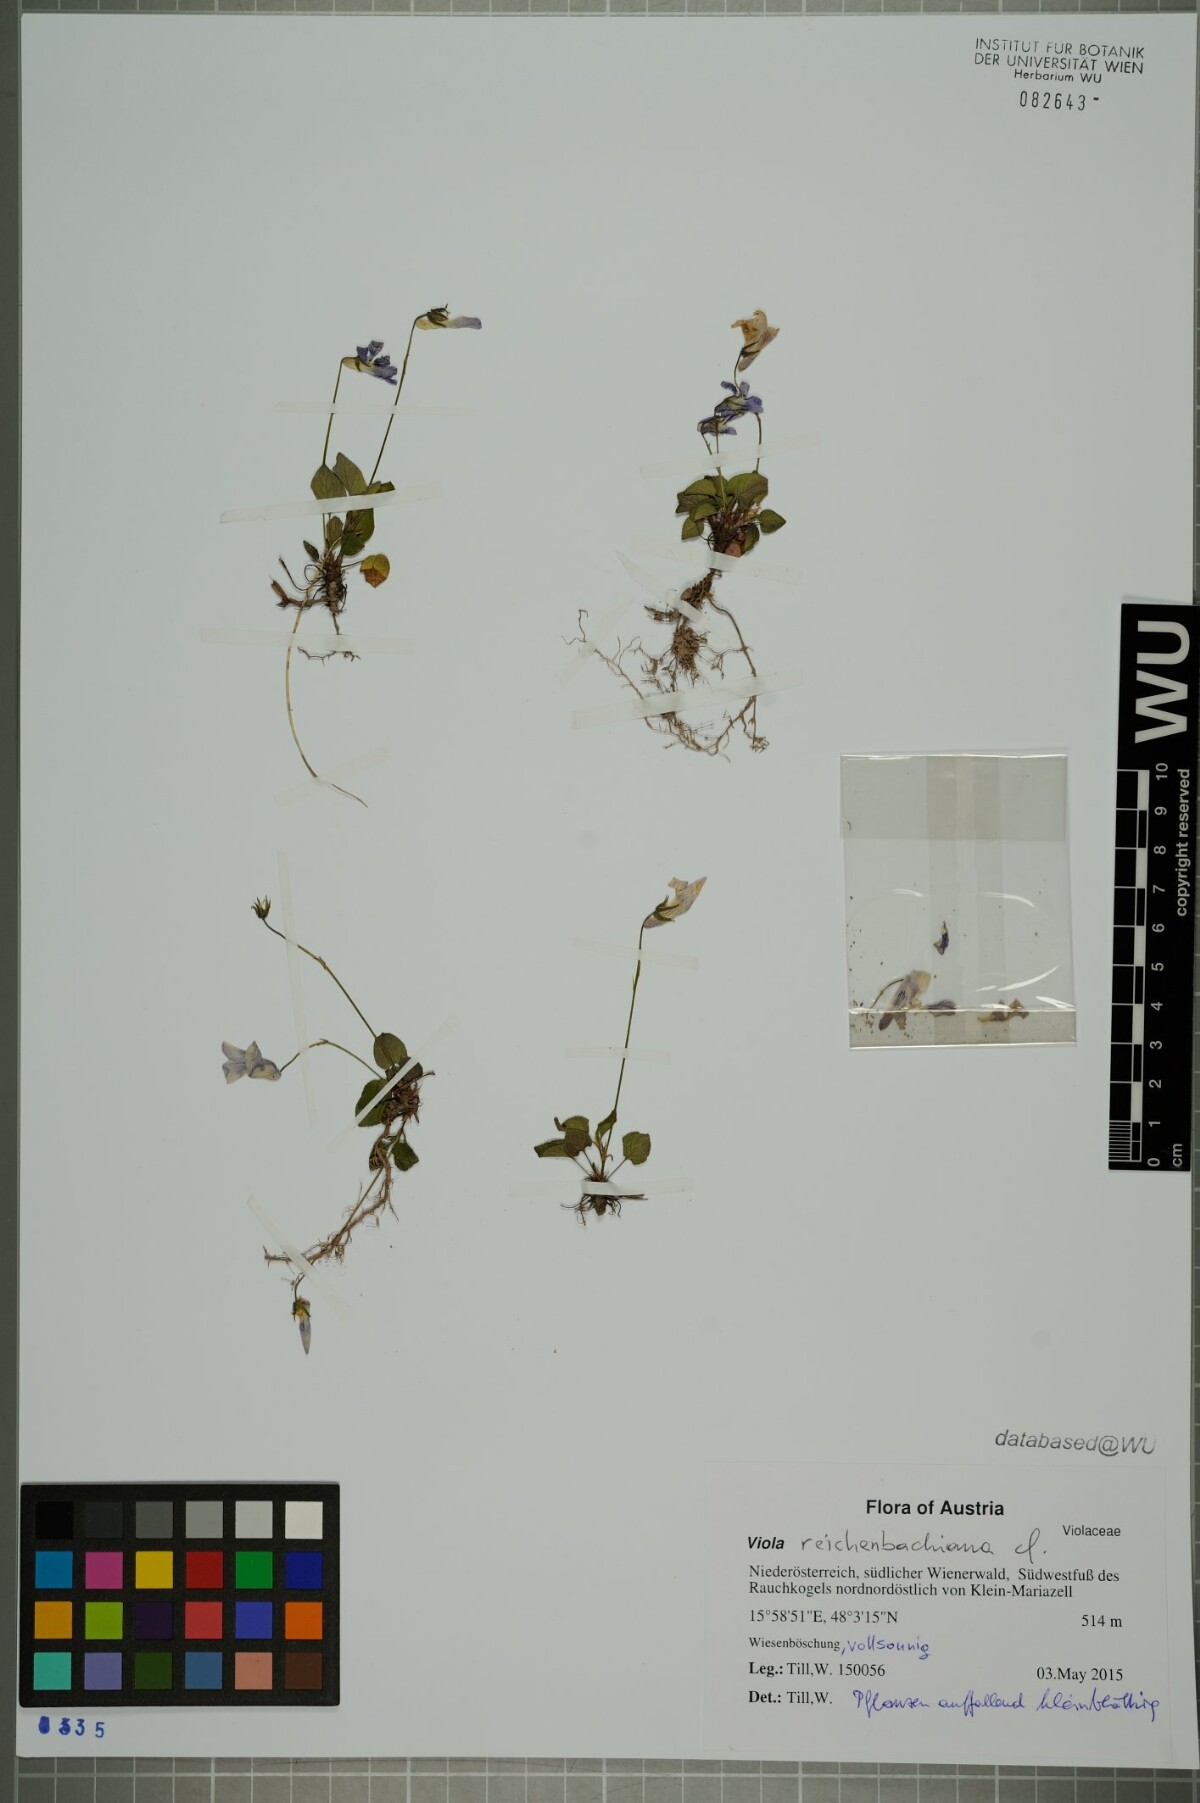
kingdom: Plantae
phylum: Tracheophyta
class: Magnoliopsida
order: Malpighiales
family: Violaceae
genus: Viola
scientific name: Viola reichenbachiana
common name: Early dog-violet
